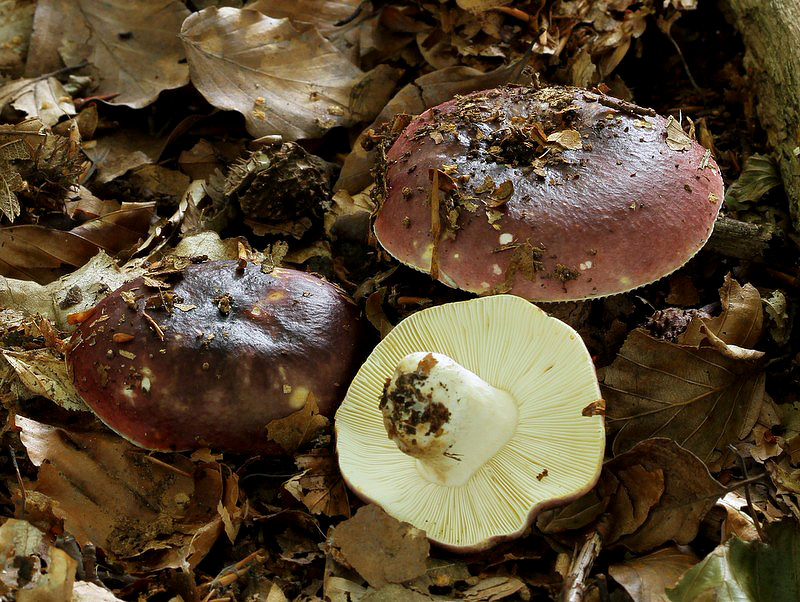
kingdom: Fungi
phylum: Basidiomycota
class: Agaricomycetes
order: Russulales
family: Russulaceae
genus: Russula
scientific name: Russula atropurpurea
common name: purpurbroget skørhat
